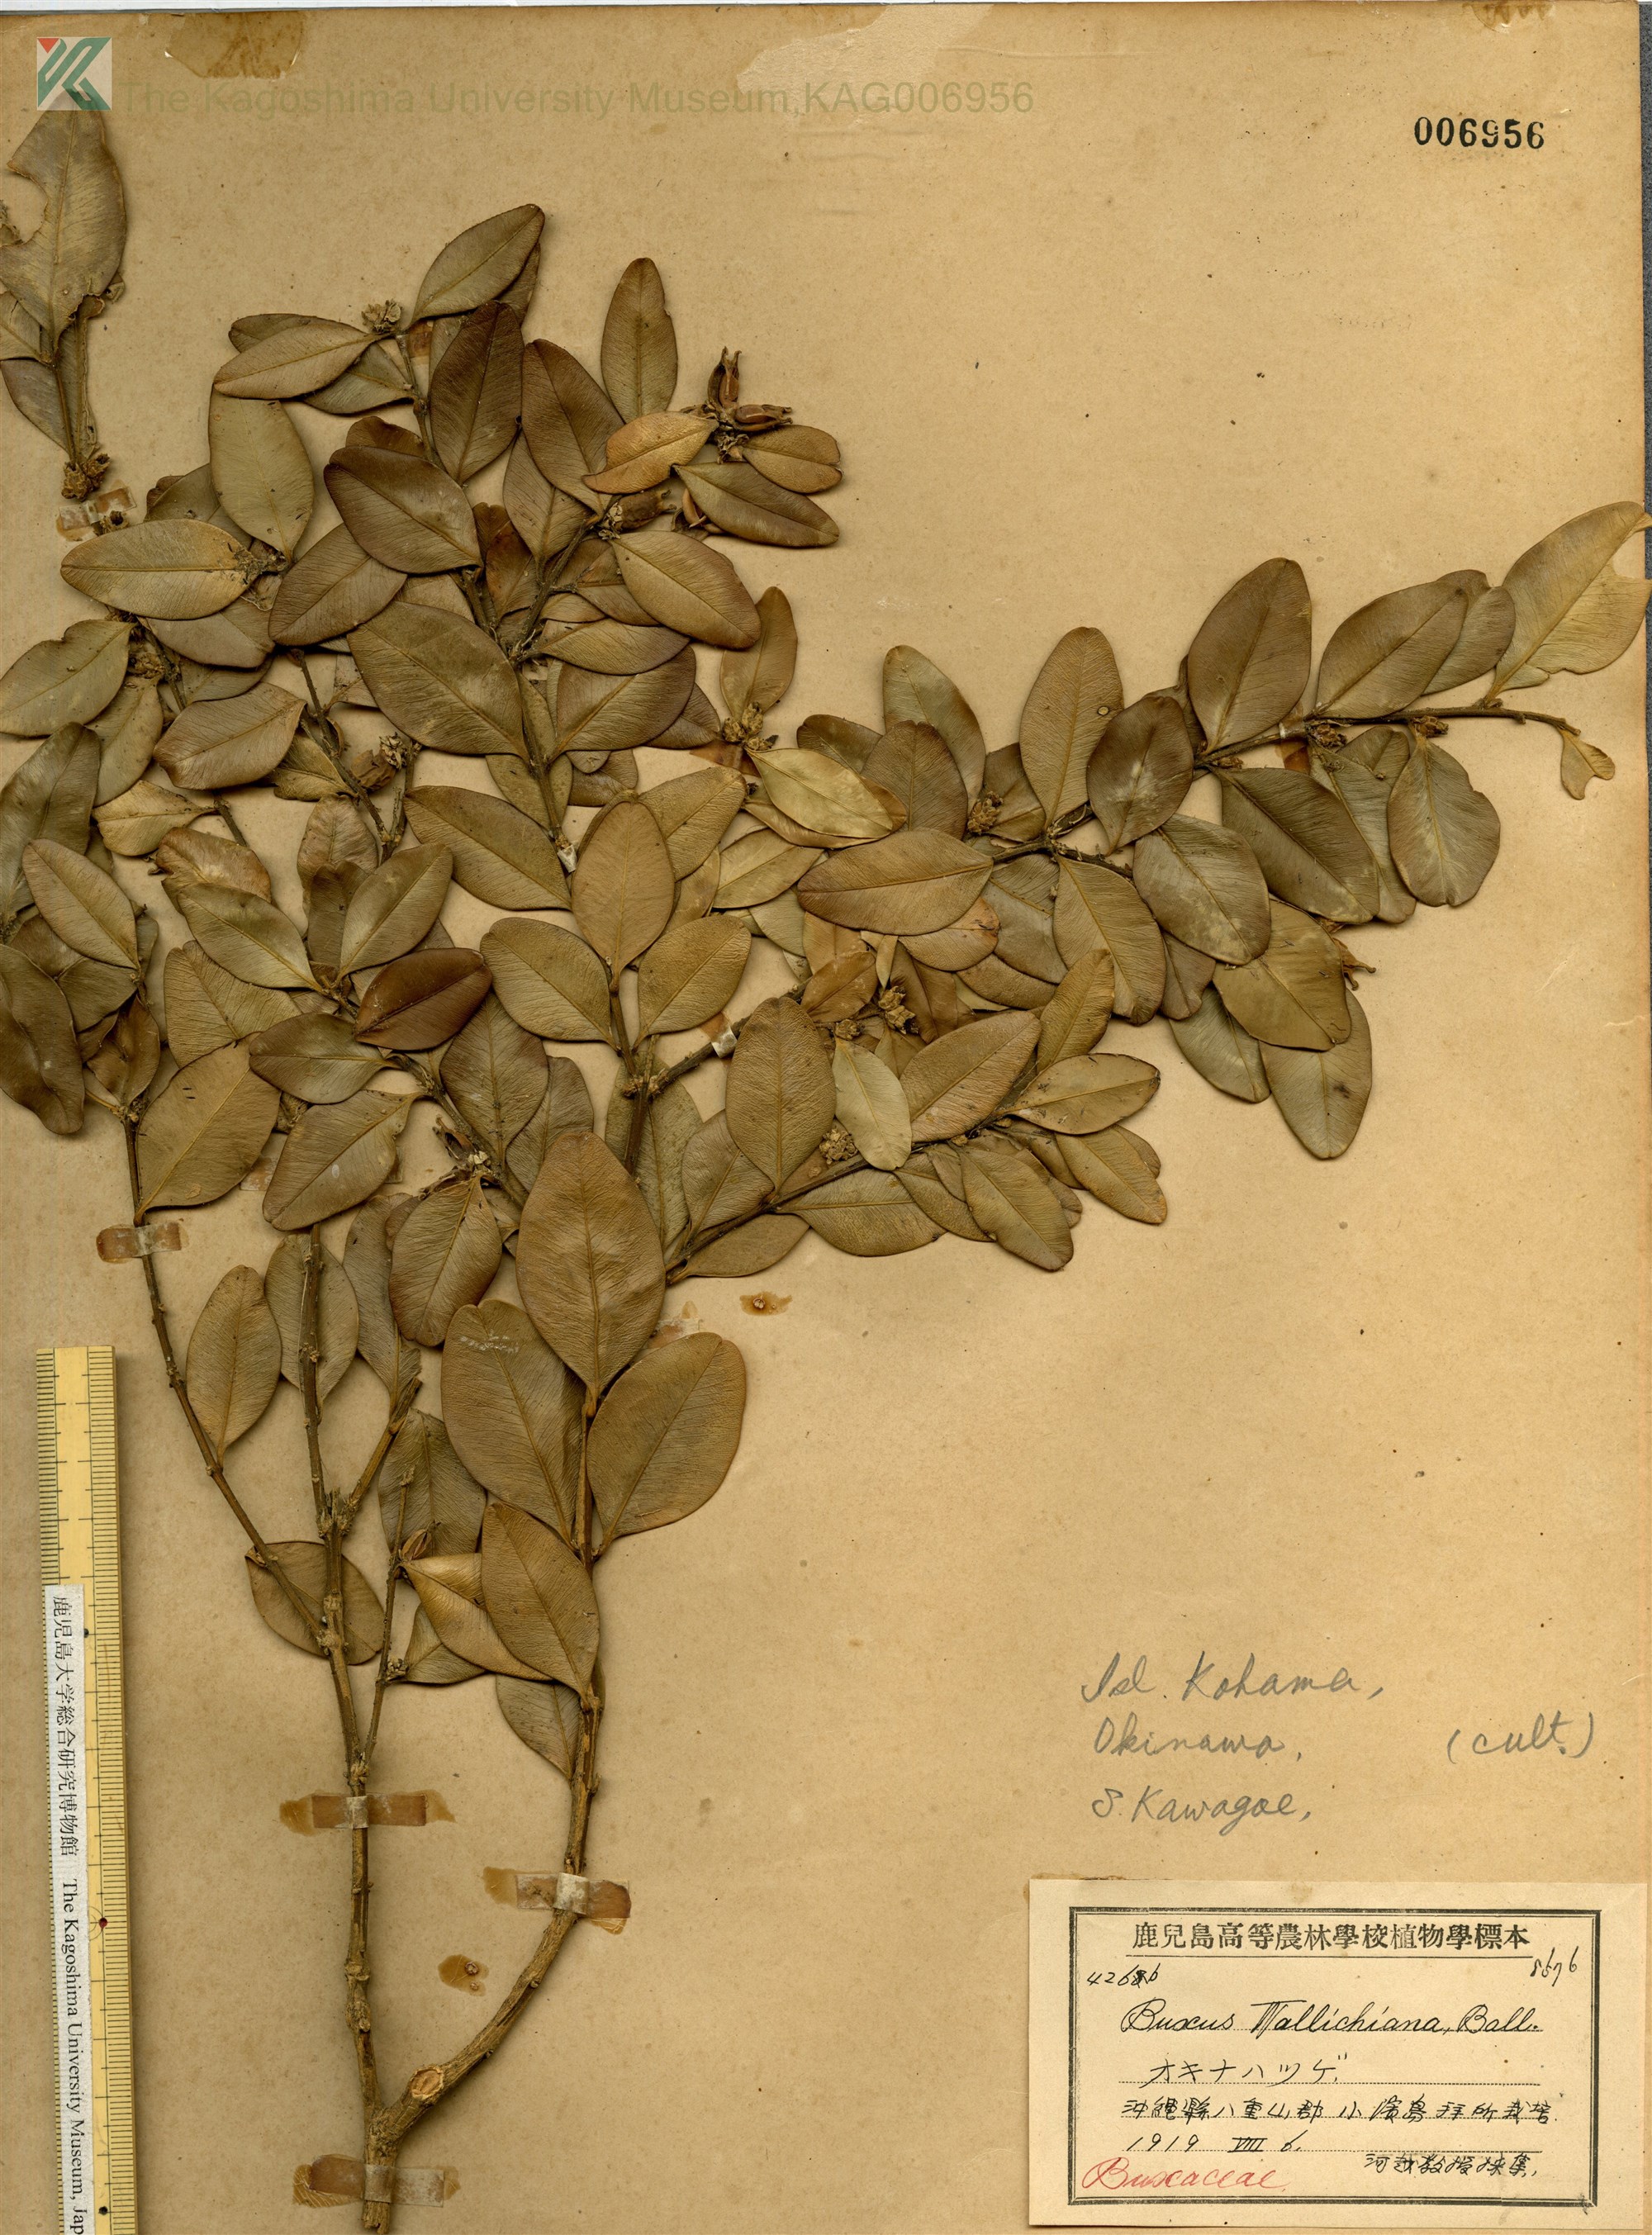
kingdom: Plantae
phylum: Tracheophyta
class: Magnoliopsida
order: Buxales
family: Buxaceae
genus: Buxus
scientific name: Buxus liukiuensis
